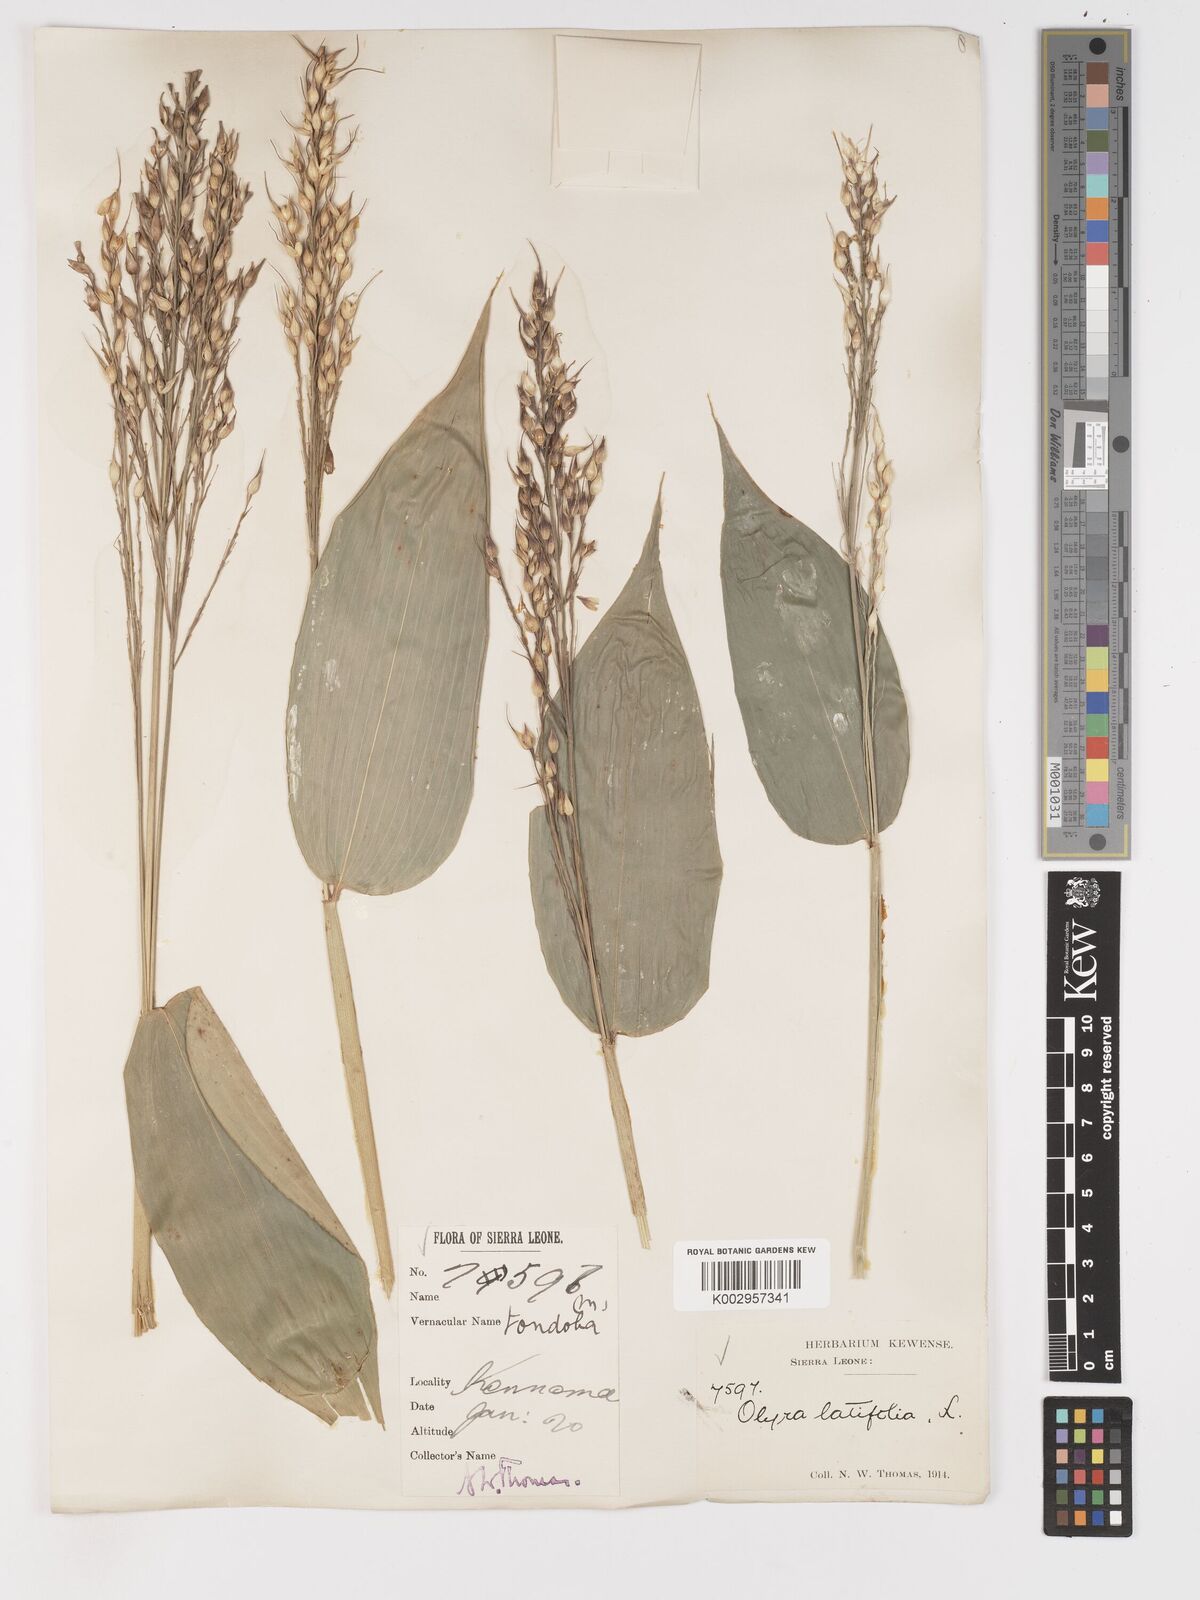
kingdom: Plantae
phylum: Tracheophyta
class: Liliopsida
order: Poales
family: Poaceae
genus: Olyra
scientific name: Olyra latifolia
